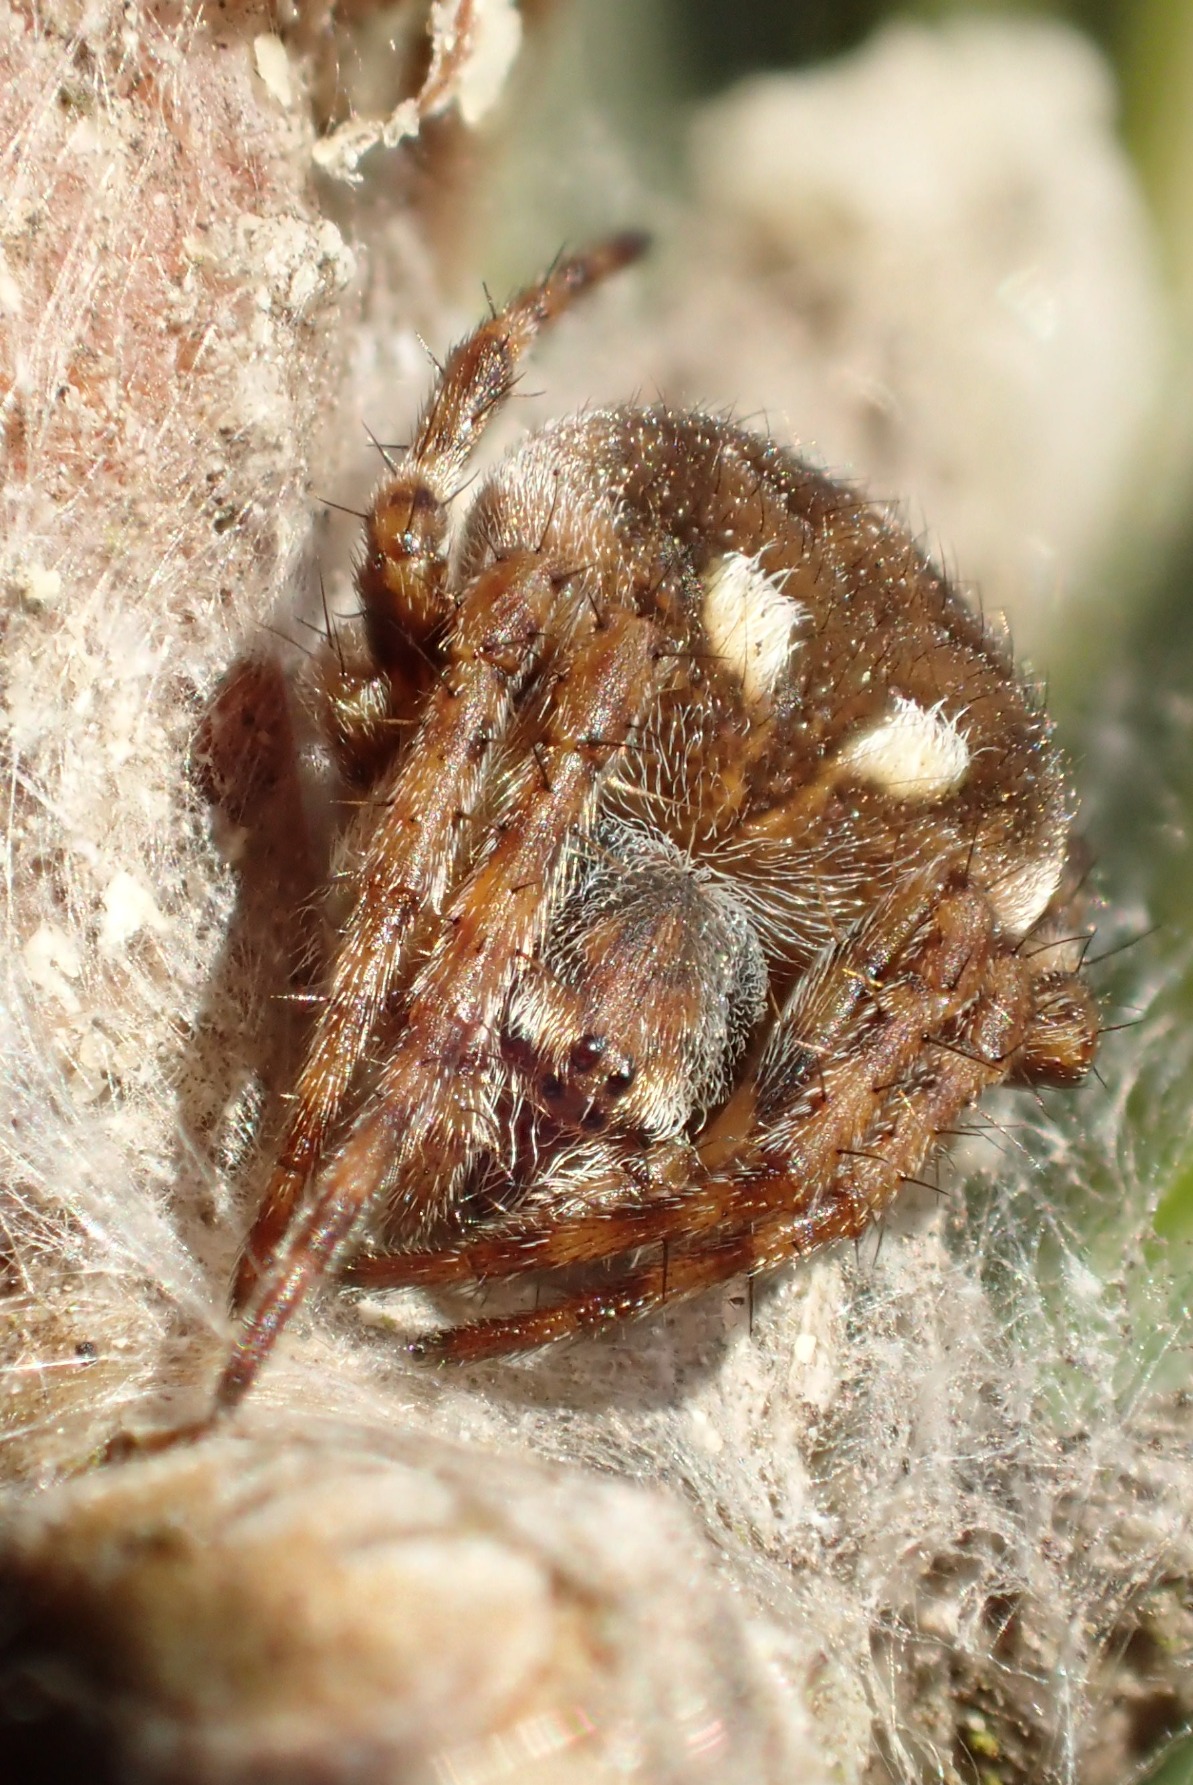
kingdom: Animalia
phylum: Arthropoda
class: Arachnida
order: Araneae
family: Araneidae
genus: Agalenatea
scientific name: Agalenatea redii
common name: Lodden hjulspinder
